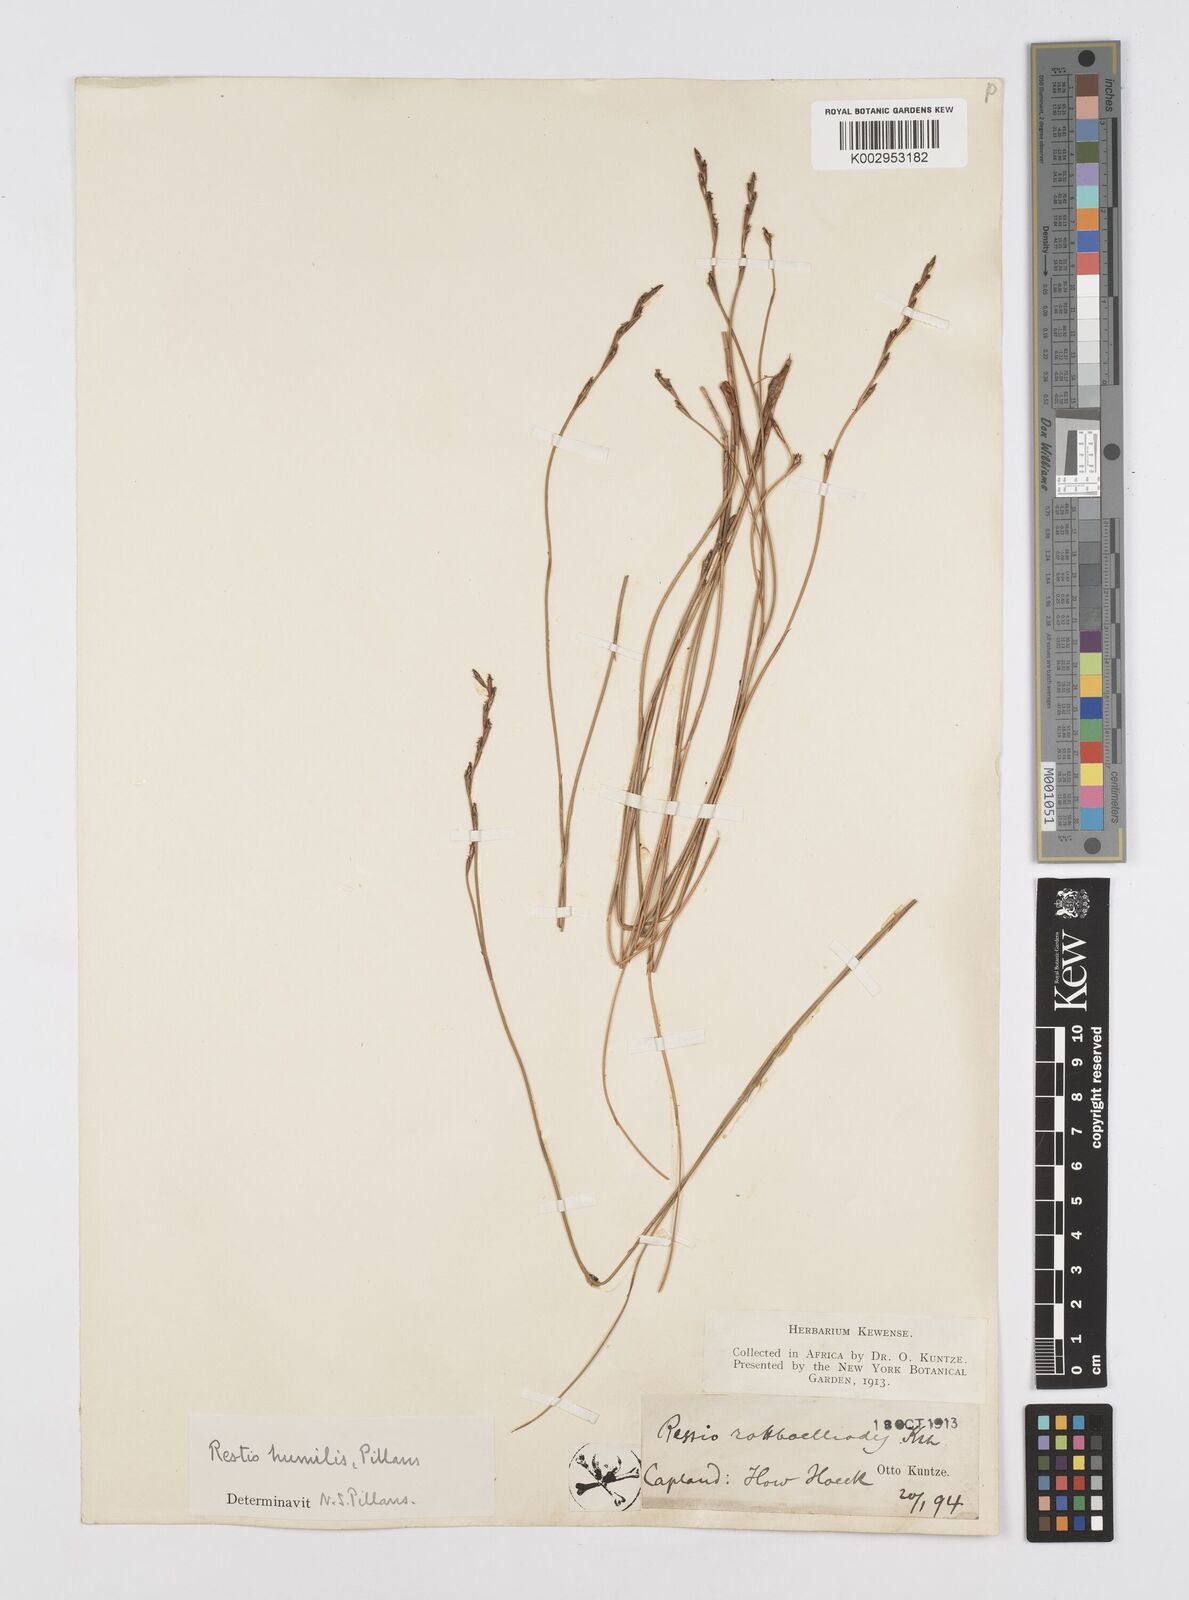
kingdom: Plantae
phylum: Tracheophyta
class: Liliopsida
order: Poales
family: Restionaceae
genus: Restio
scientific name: Restio wallichii
